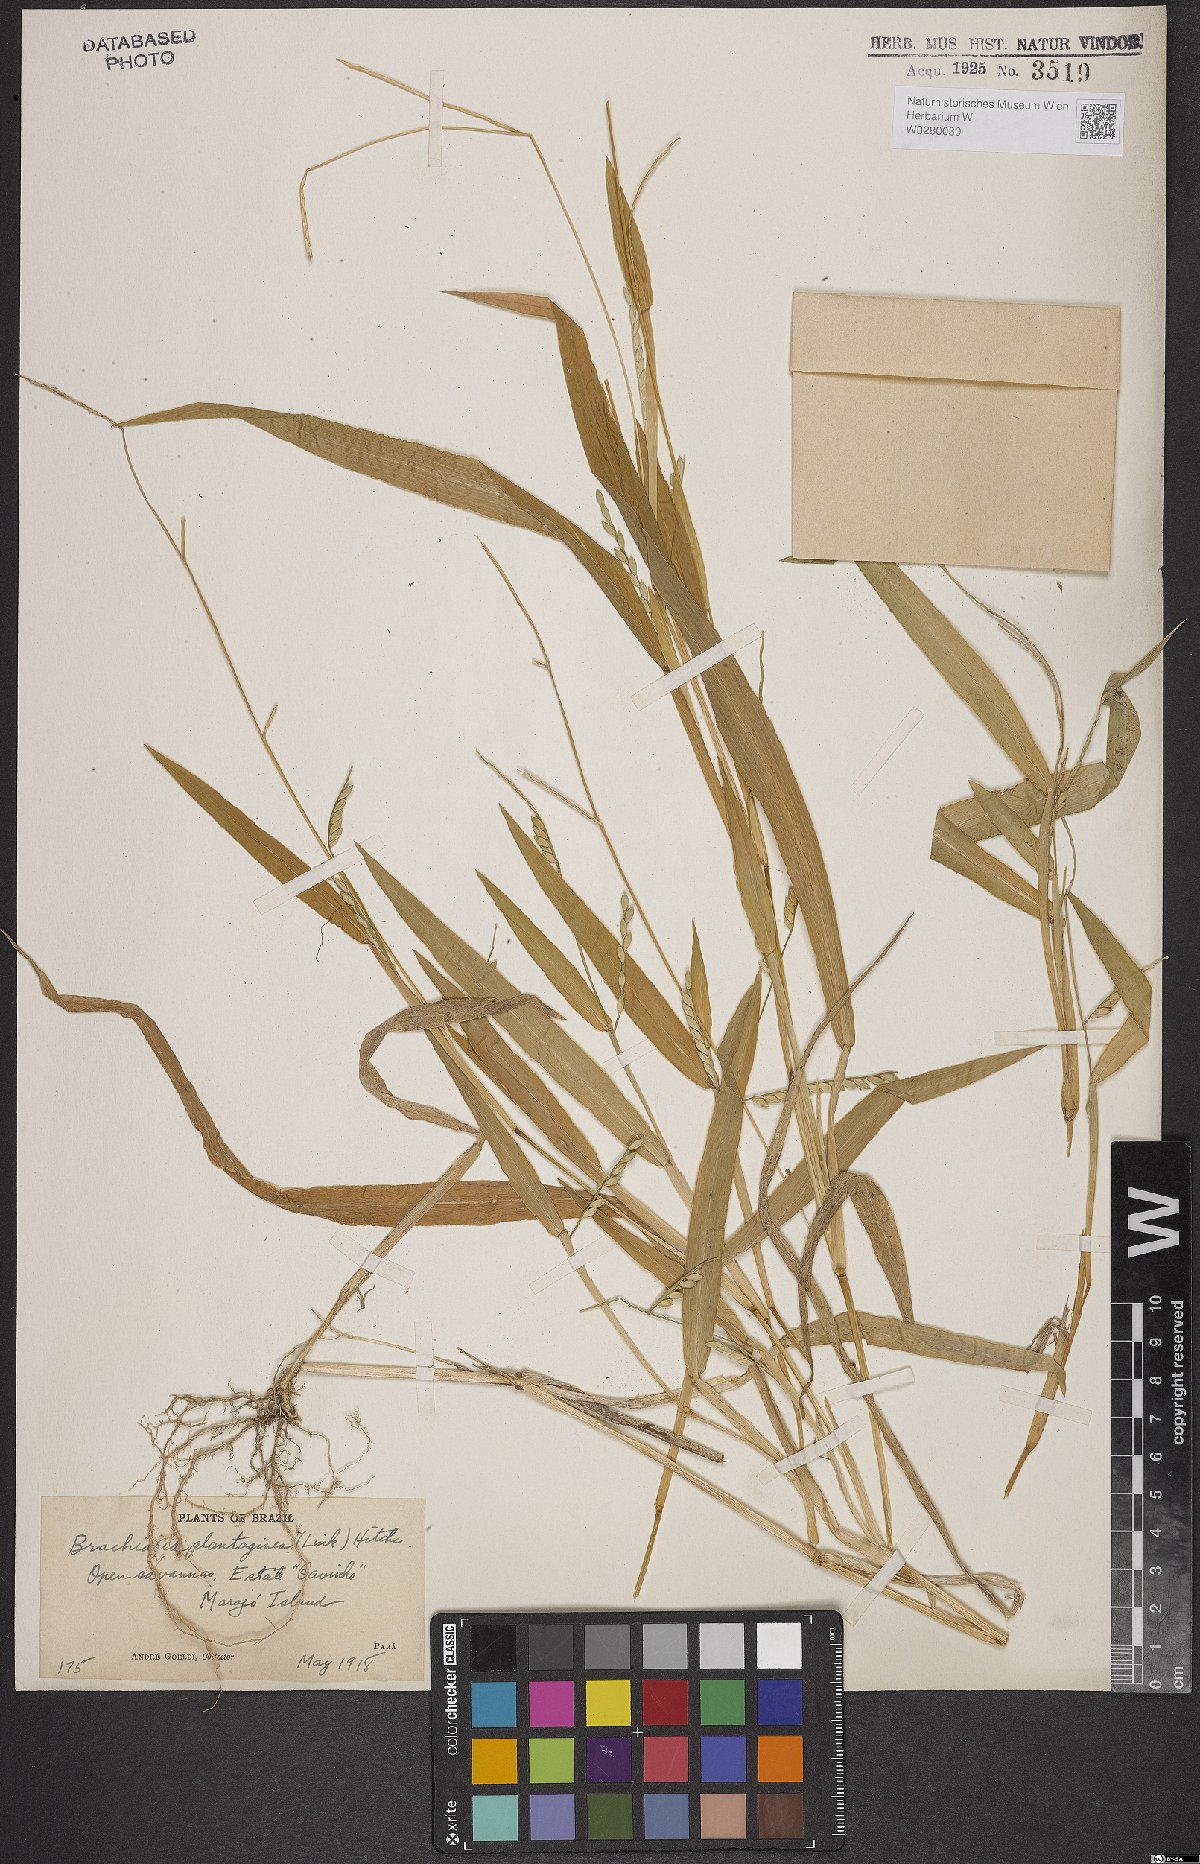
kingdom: Plantae
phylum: Tracheophyta
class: Liliopsida
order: Poales
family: Poaceae
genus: Urochloa
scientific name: Urochloa plantaginea
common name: Plantain signalgrass
